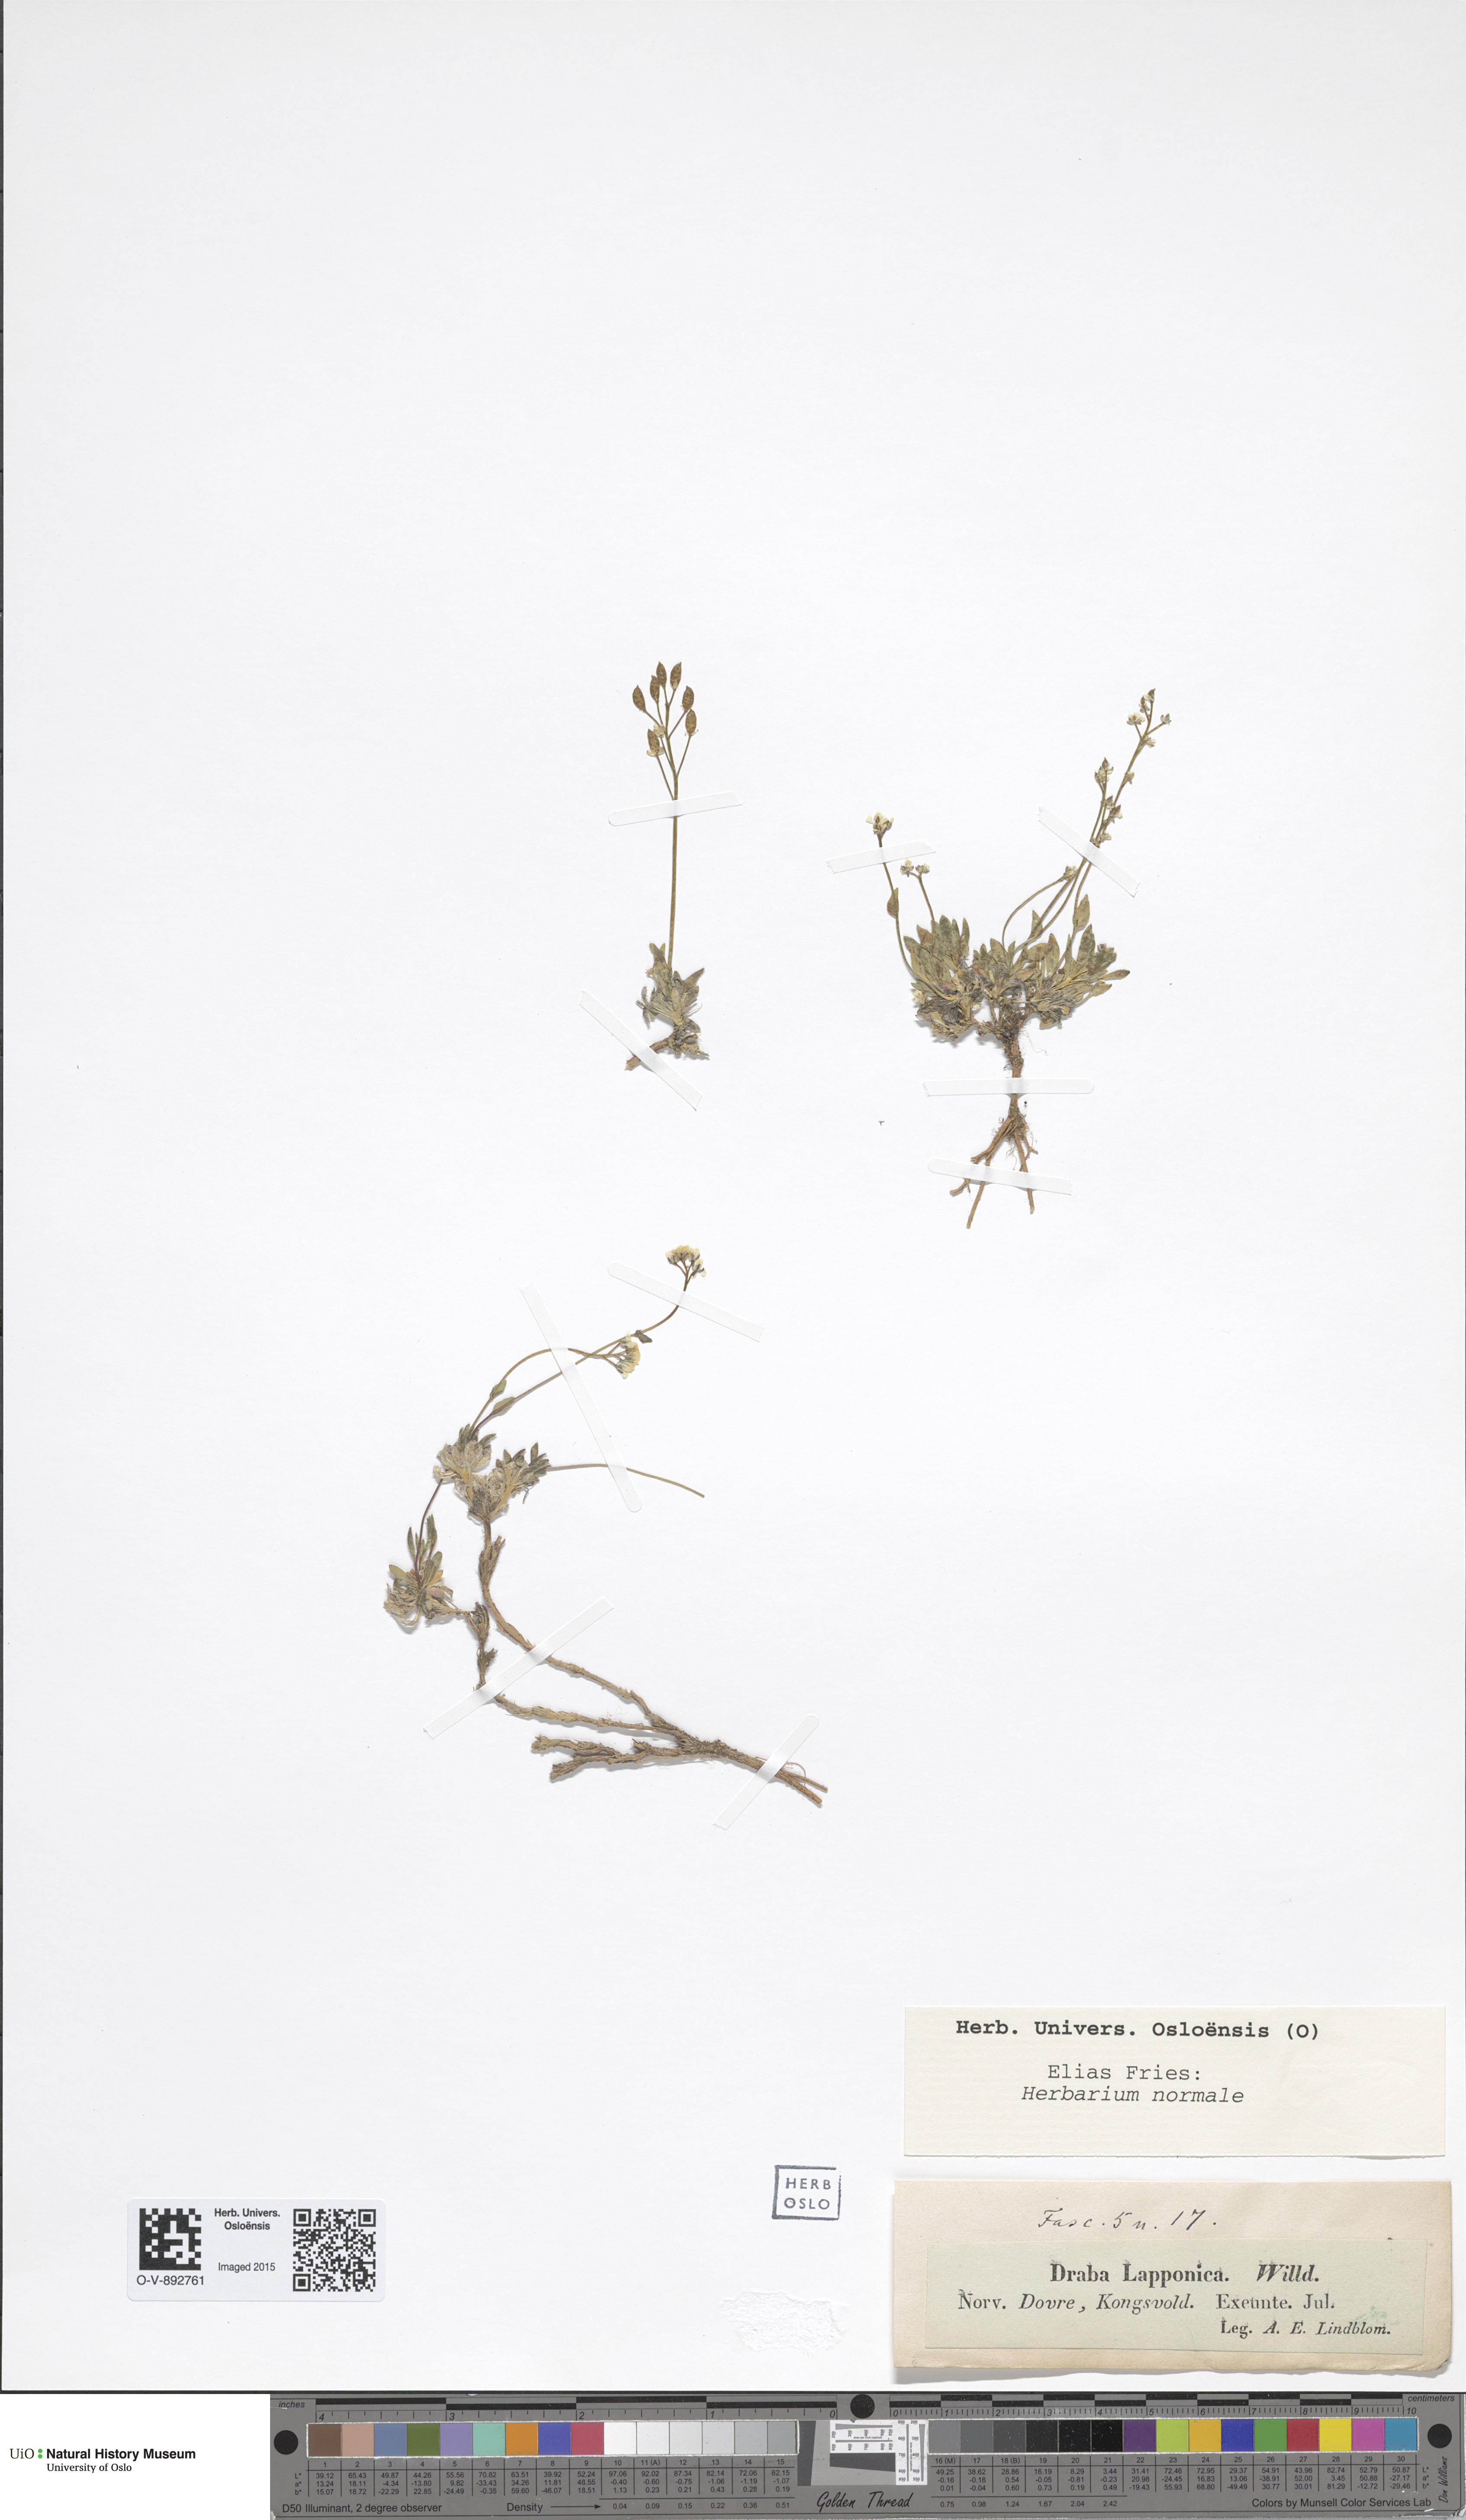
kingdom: Plantae
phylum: Tracheophyta
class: Magnoliopsida
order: Brassicales
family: Brassicaceae
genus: Draba
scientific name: Draba lactea
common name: Milky draba
